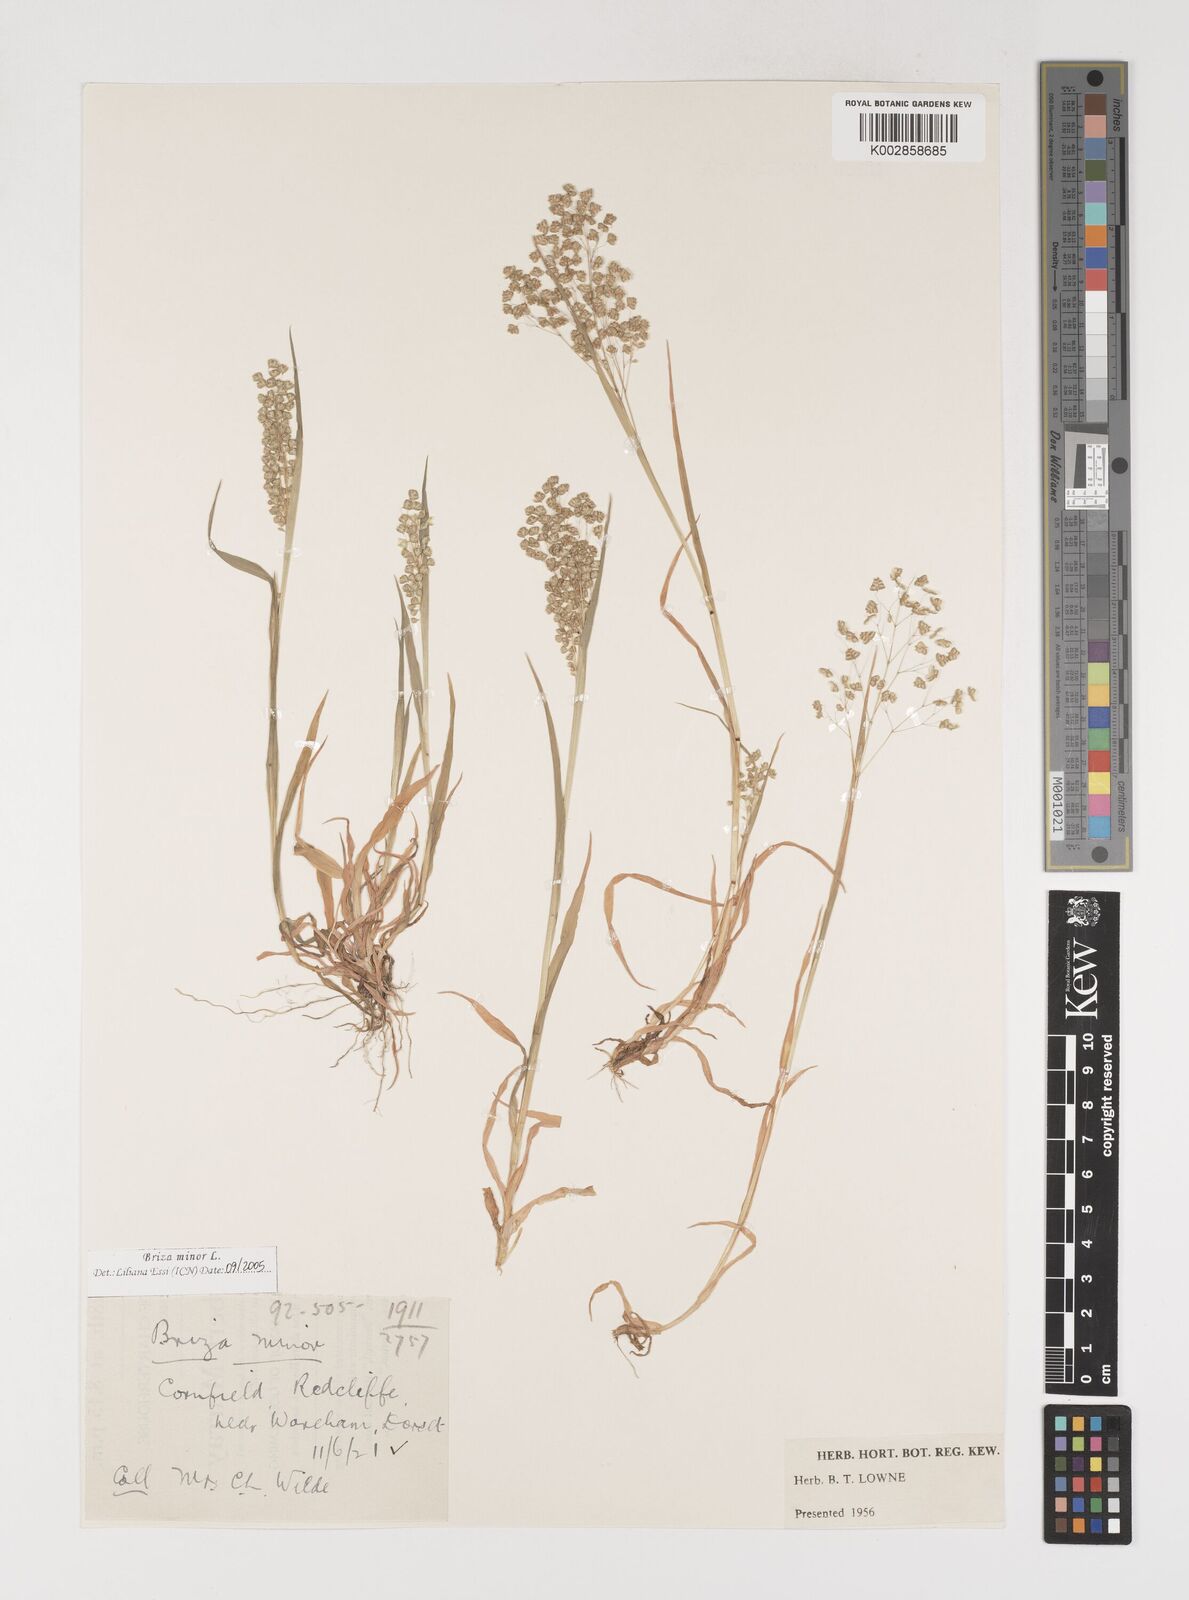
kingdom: Plantae
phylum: Tracheophyta
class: Liliopsida
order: Poales
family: Poaceae
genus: Briza
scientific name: Briza minor
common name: Lesser quaking-grass
